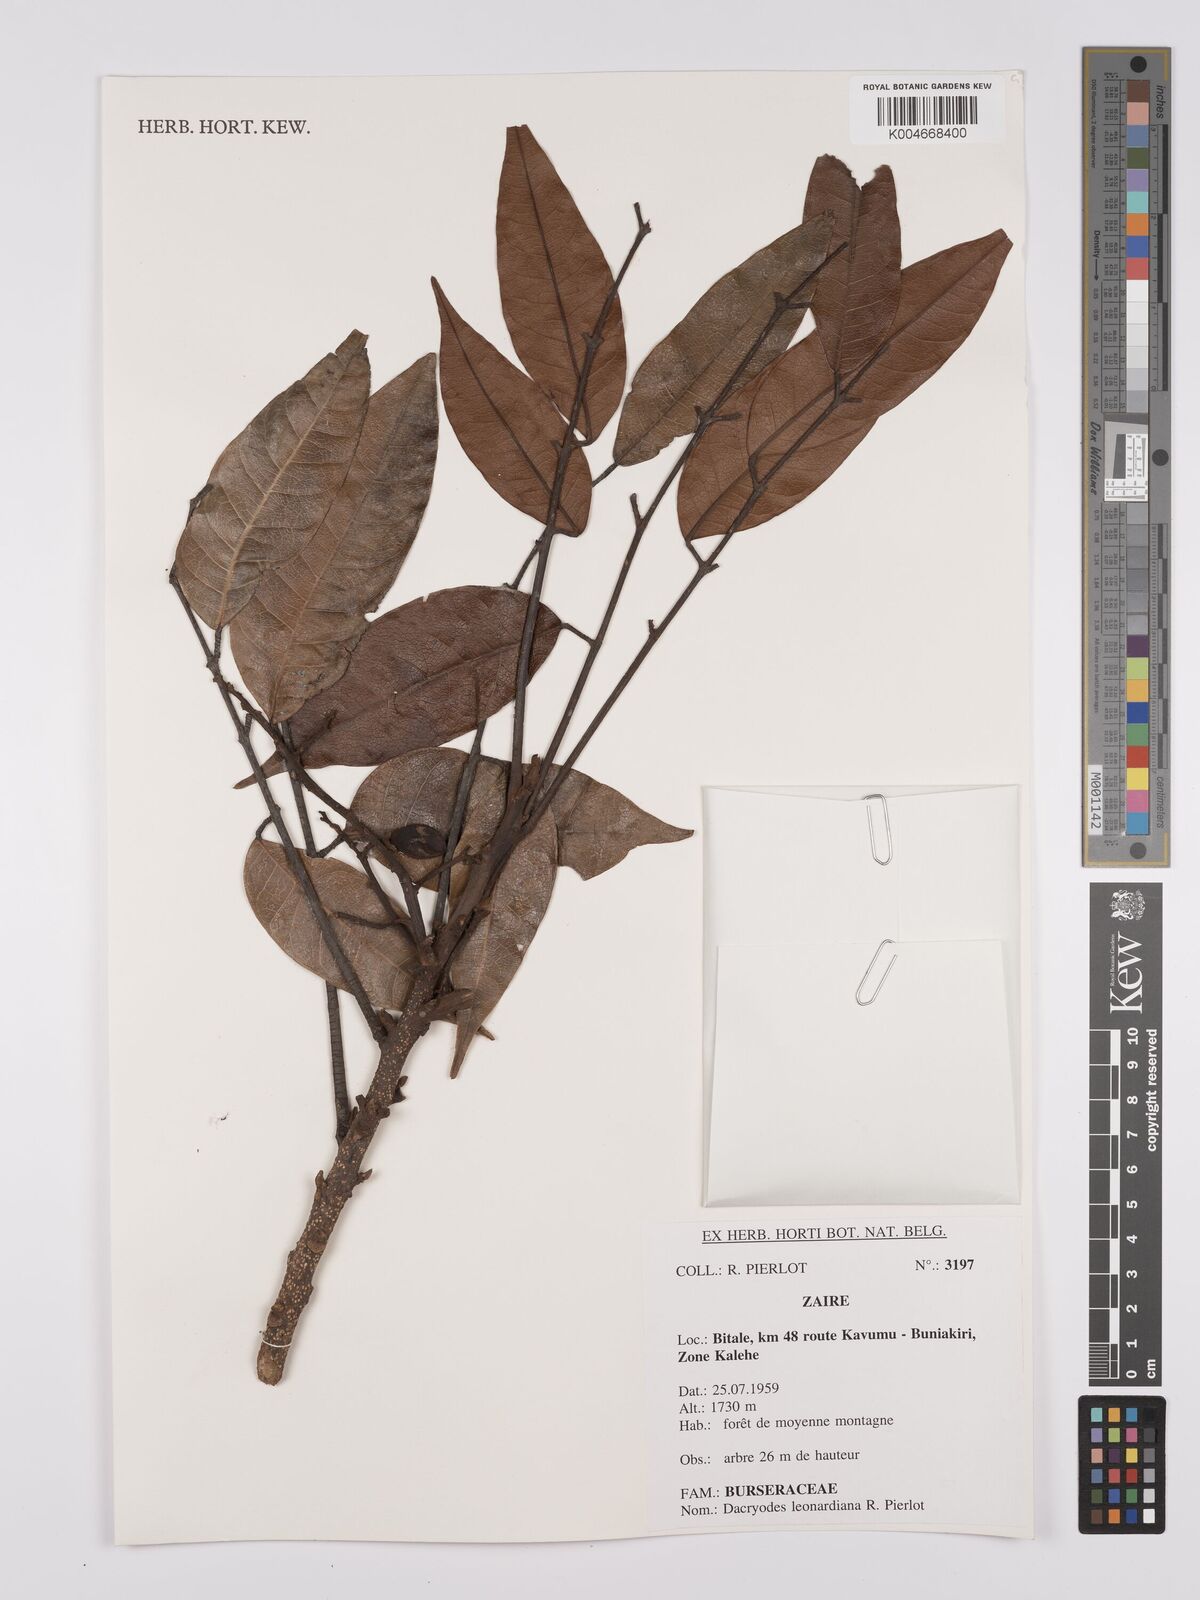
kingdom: Plantae
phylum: Tracheophyta
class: Magnoliopsida
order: Sapindales
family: Burseraceae
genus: Pachylobus
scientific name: Pachylobus leonardianus
